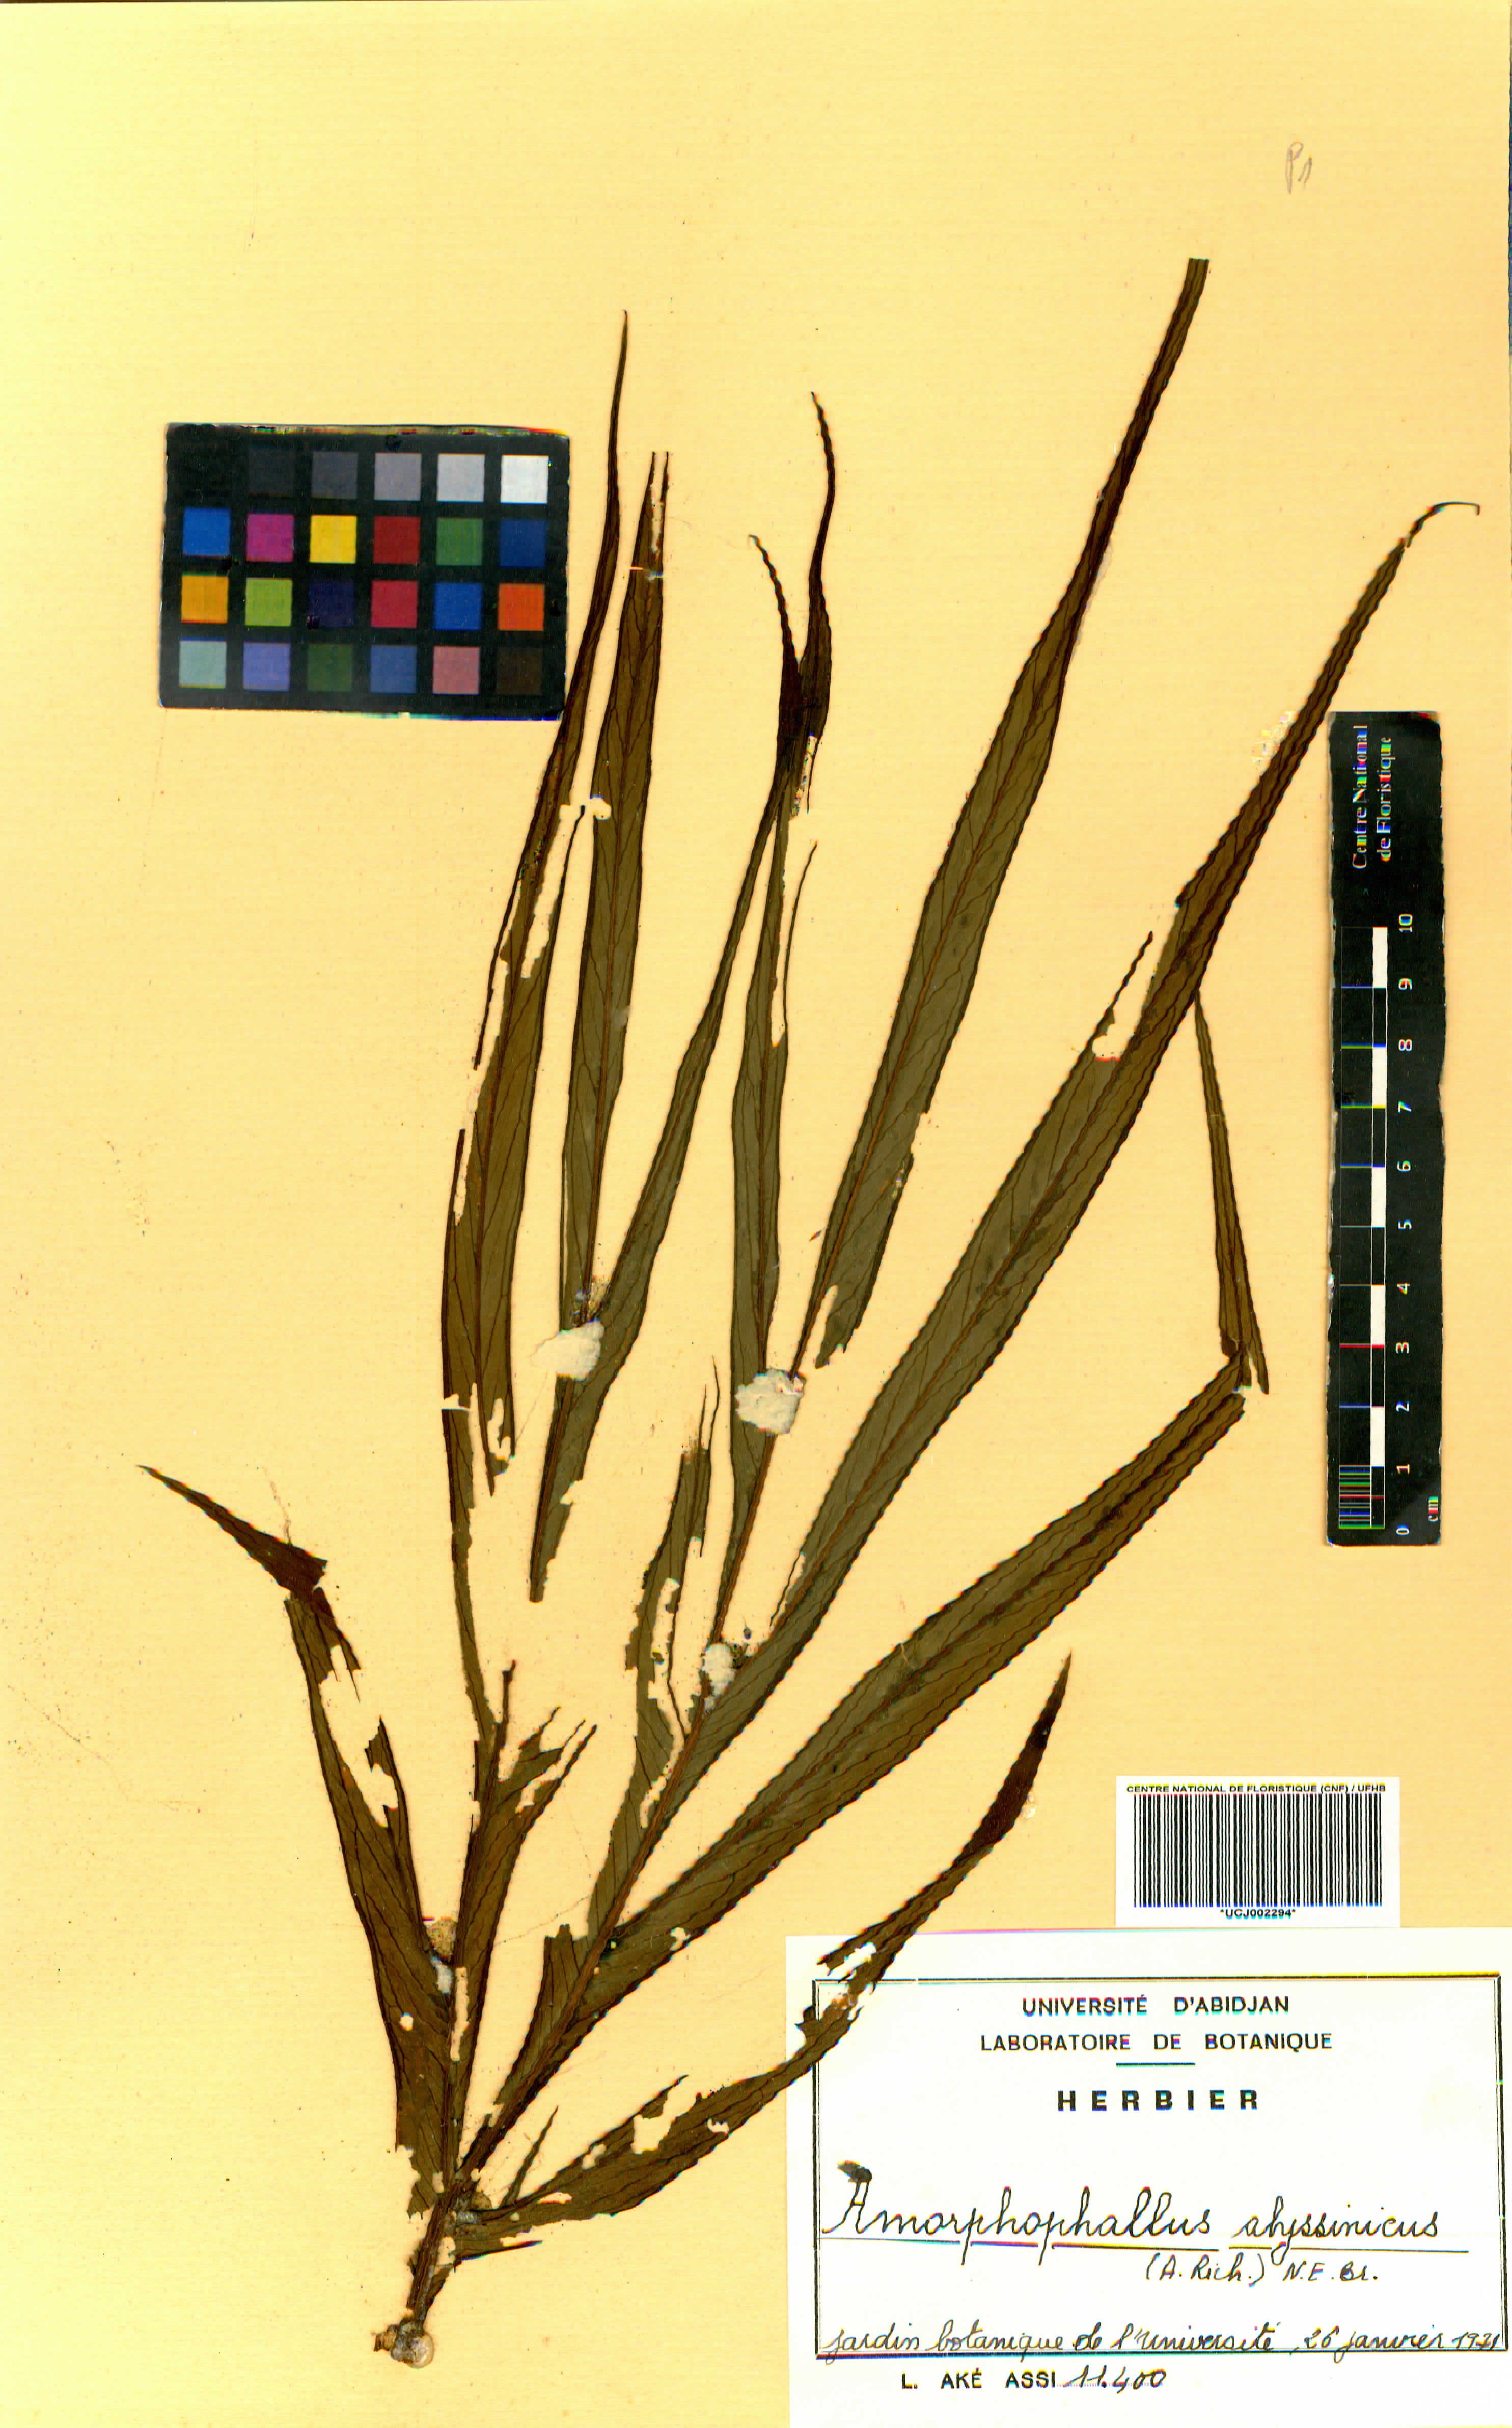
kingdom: Plantae
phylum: Tracheophyta
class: Liliopsida
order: Alismatales
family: Araceae
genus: Amorphophallus
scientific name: Amorphophallus abyssinicus
